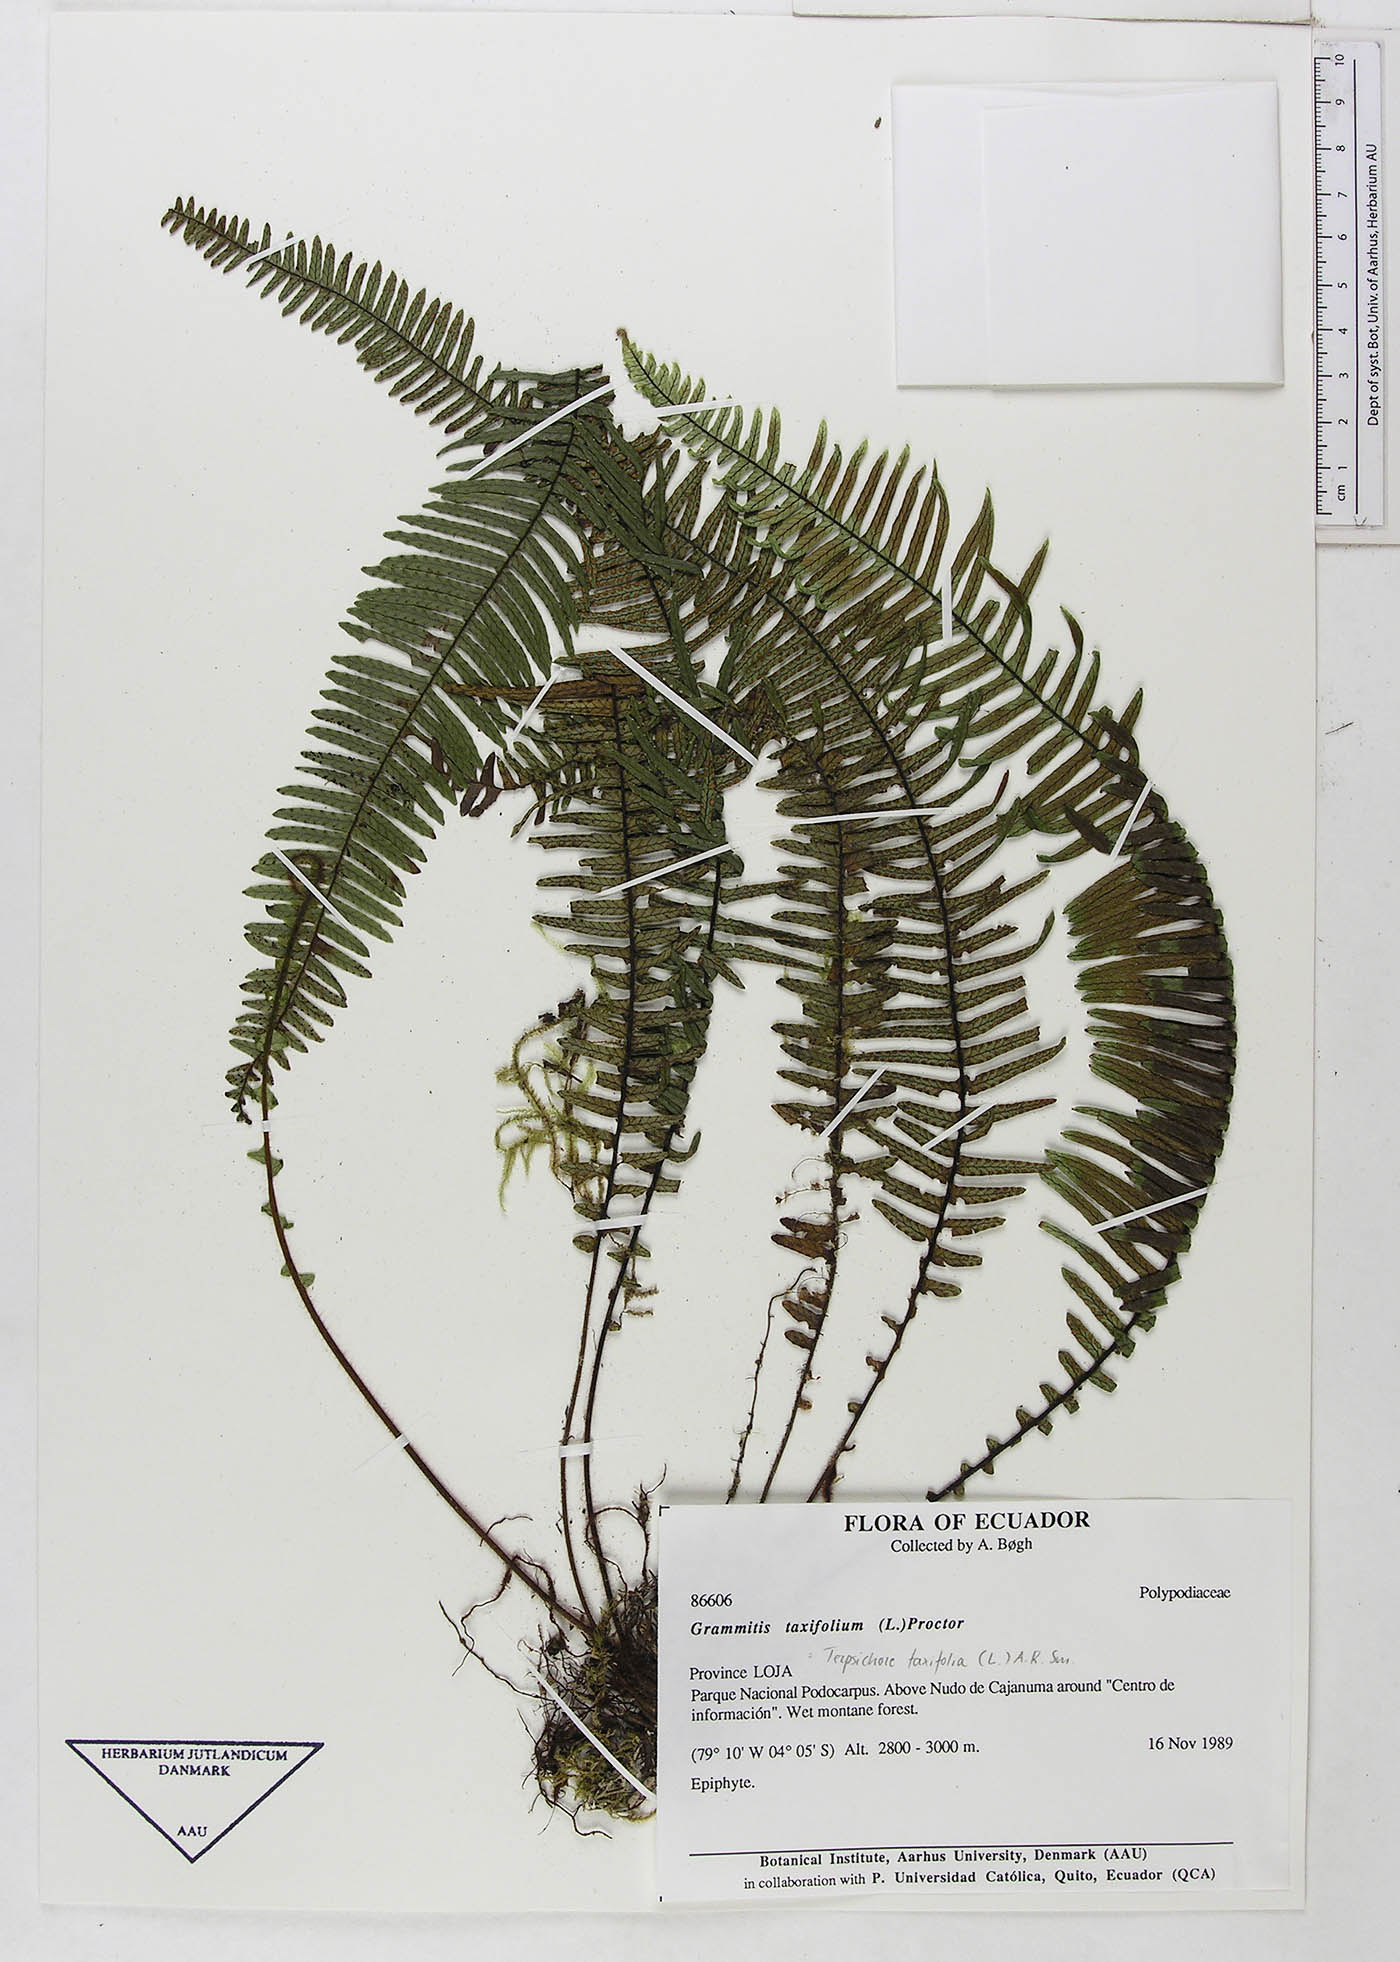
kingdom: Plantae
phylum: Tracheophyta
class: Polypodiopsida
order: Polypodiales
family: Polypodiaceae
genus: Mycopteris
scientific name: Mycopteris taxifolia
